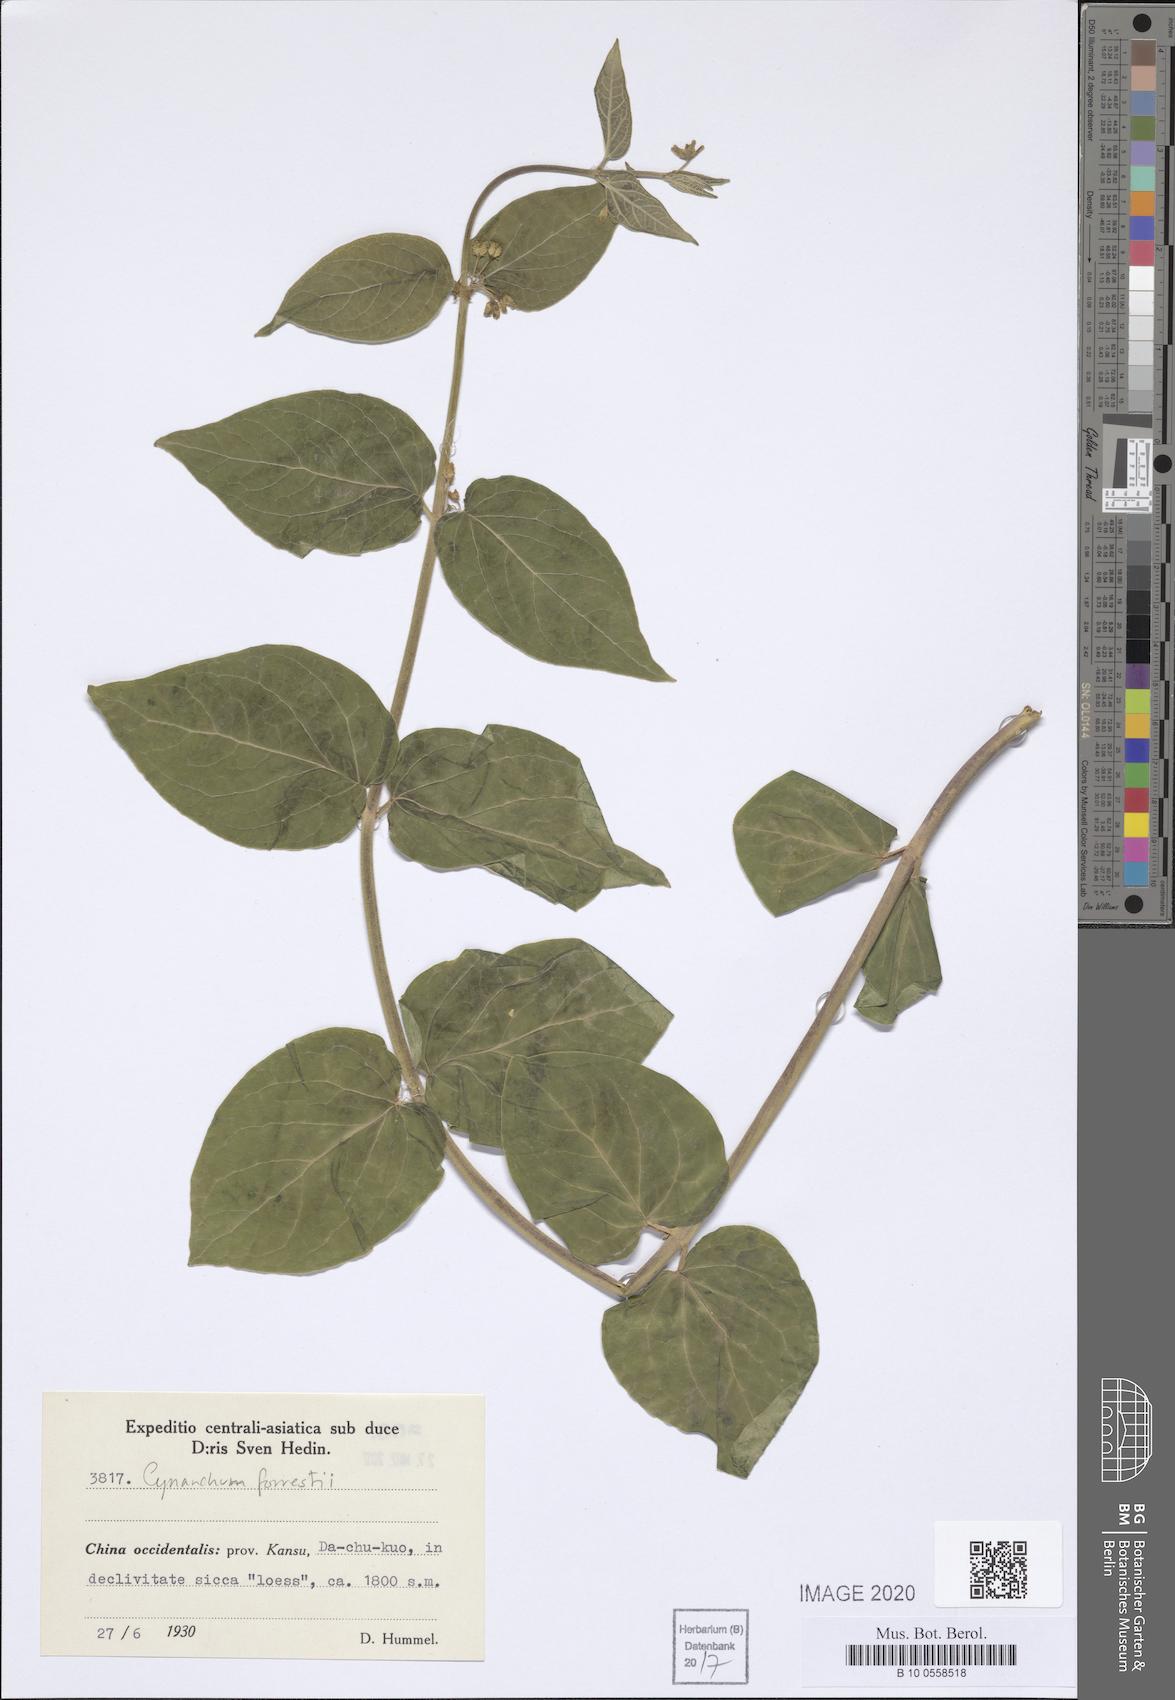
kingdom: Plantae
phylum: Tracheophyta
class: Magnoliopsida
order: Gentianales
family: Apocynaceae
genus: Vincetoxicum
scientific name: Vincetoxicum forrestii
